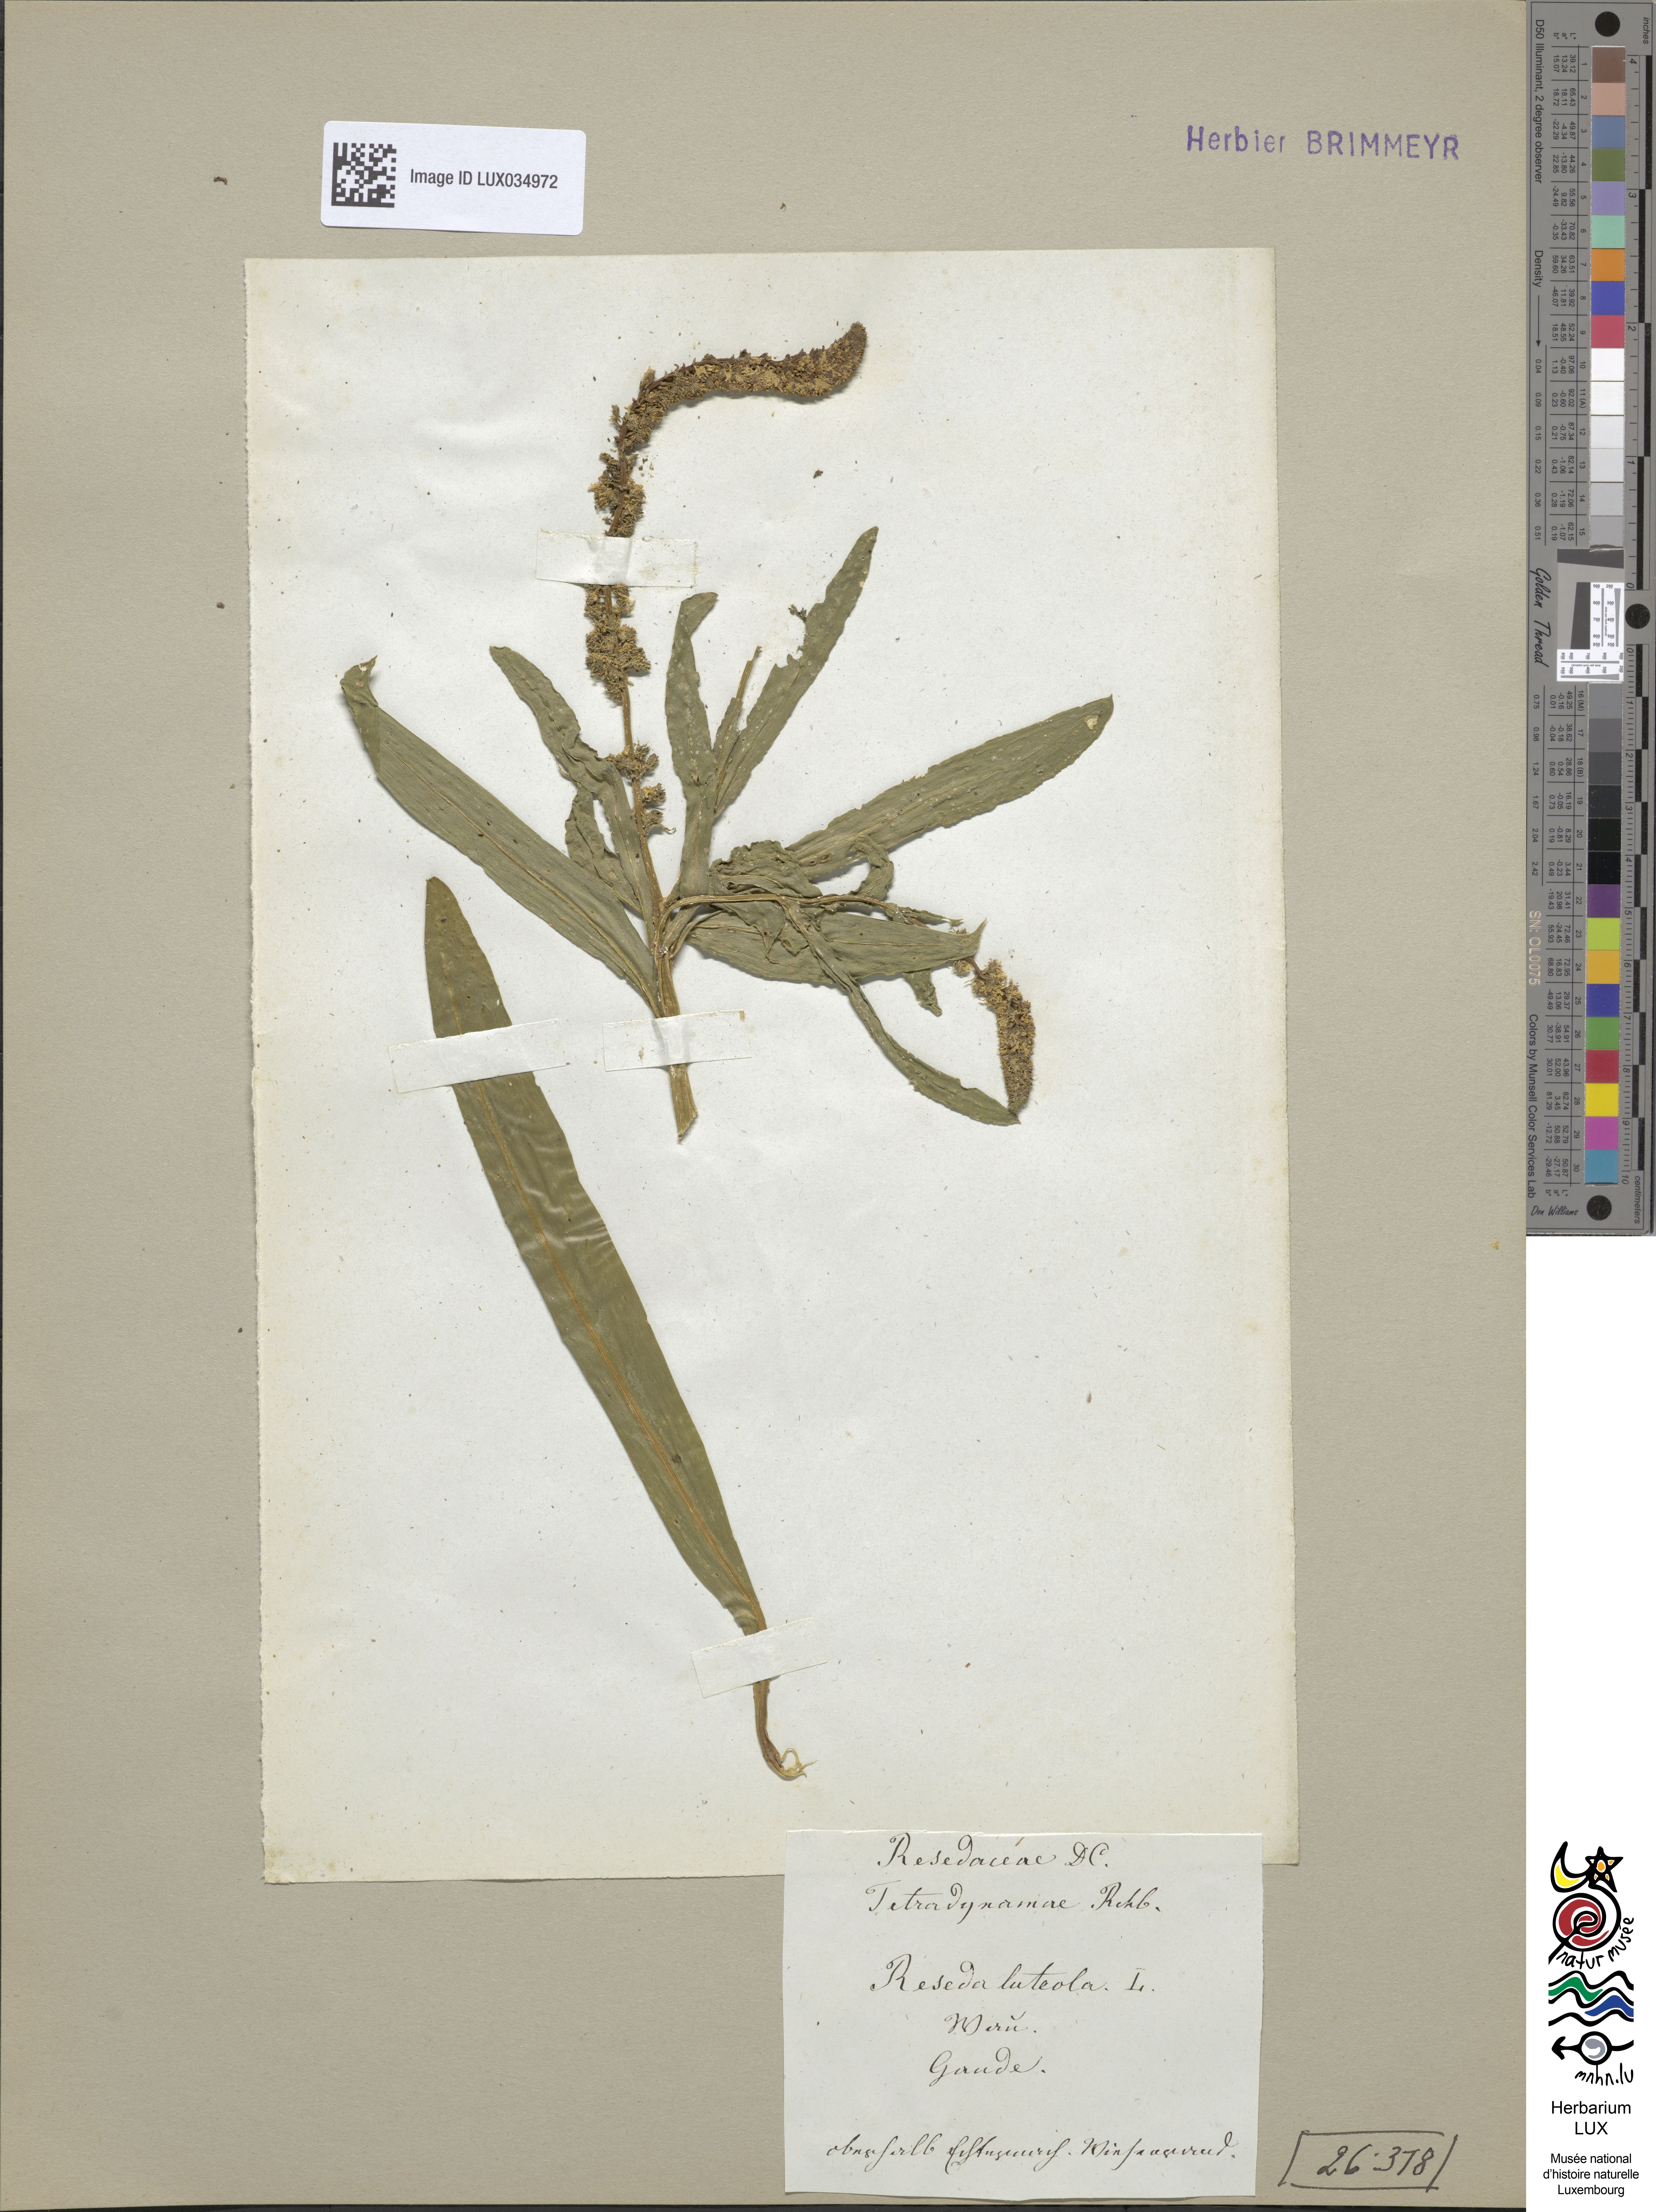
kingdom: Plantae
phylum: Tracheophyta
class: Magnoliopsida
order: Brassicales
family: Resedaceae
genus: Reseda
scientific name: Reseda luteola
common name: Weld
